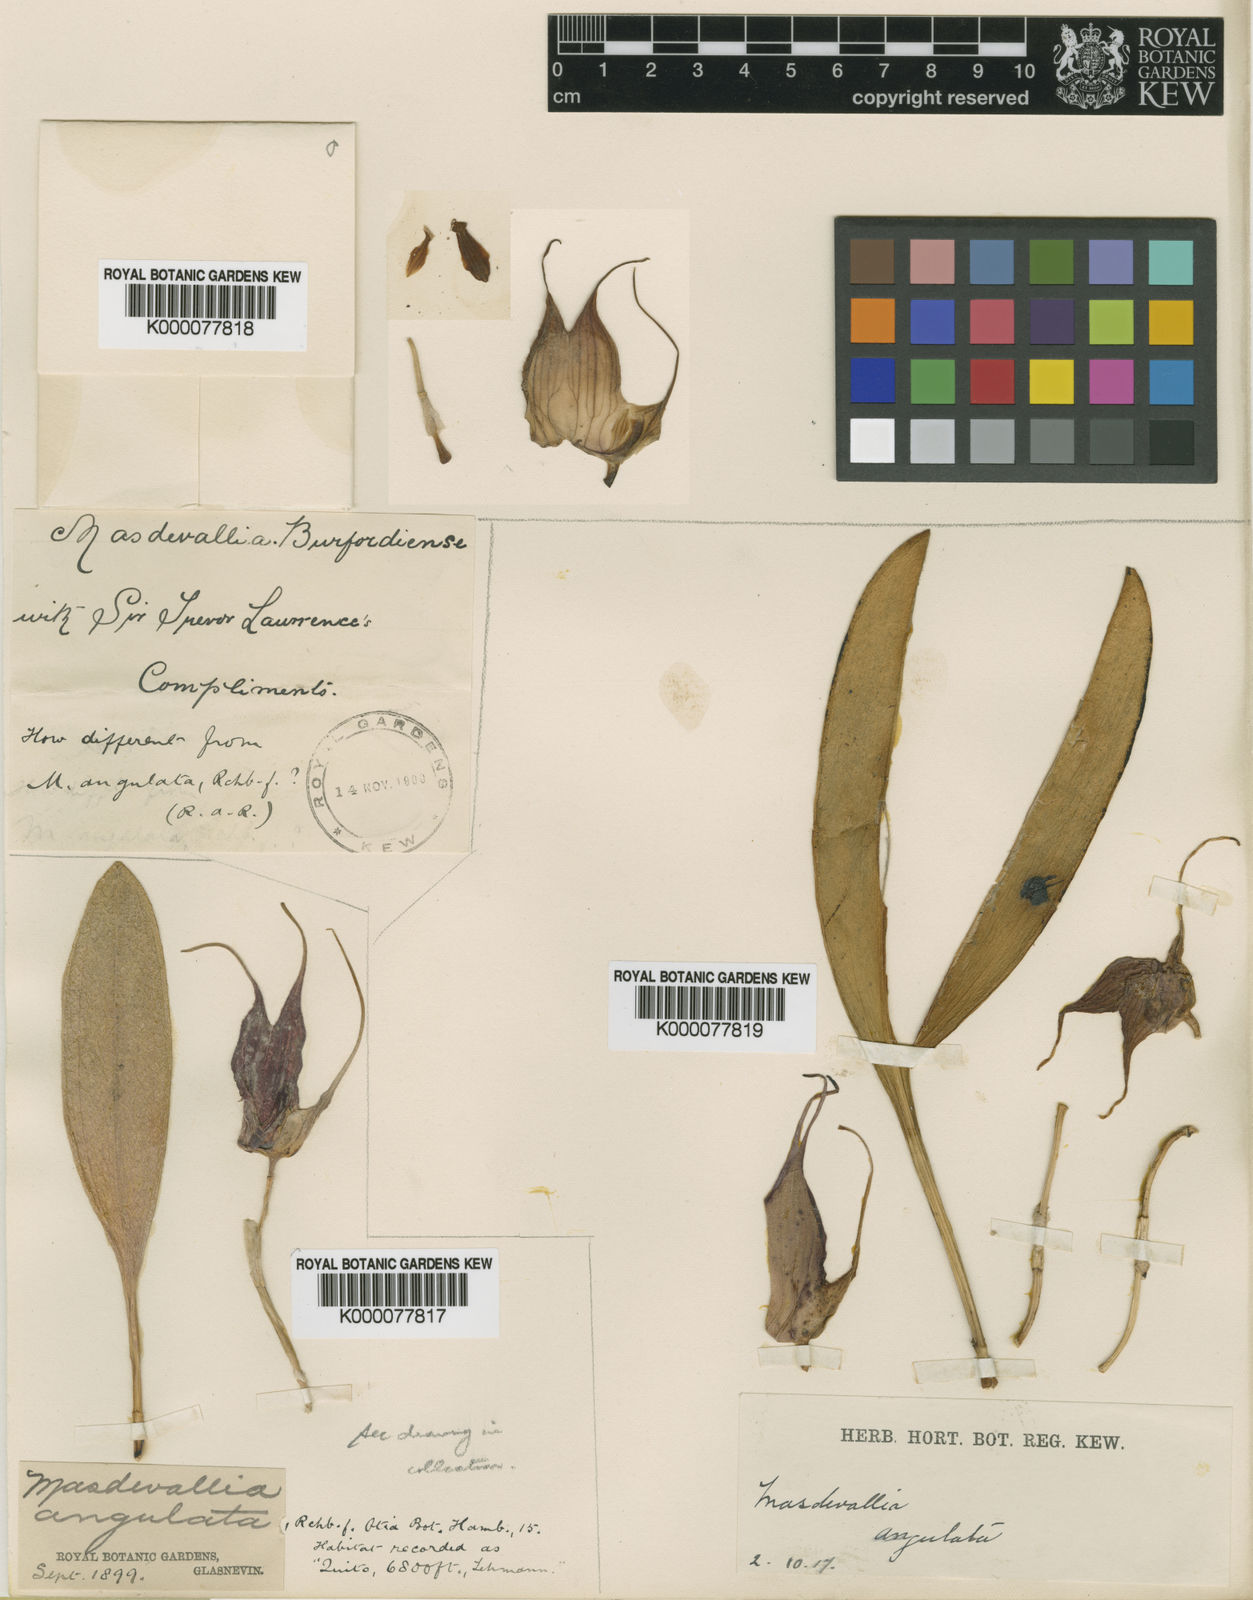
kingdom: Plantae
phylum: Tracheophyta
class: Liliopsida
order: Asparagales
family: Orchidaceae
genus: Masdevallia
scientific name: Masdevallia angulata
